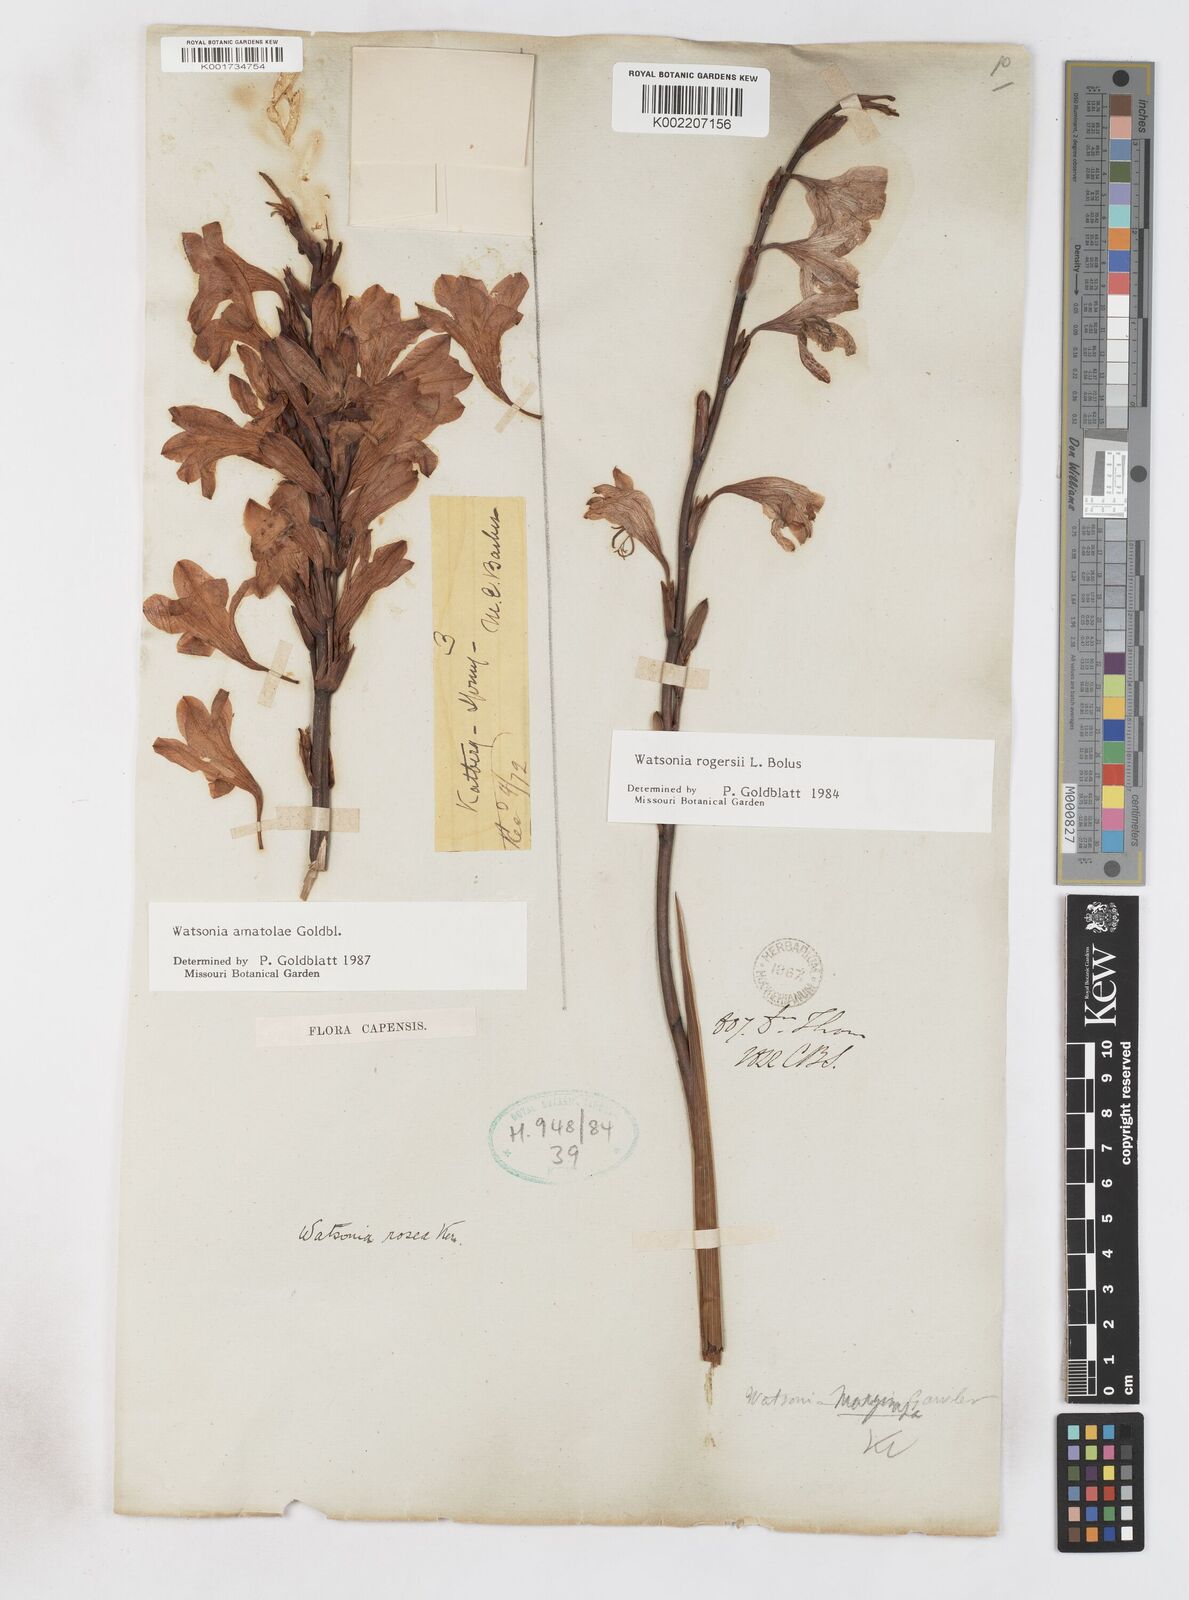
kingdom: Plantae
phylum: Tracheophyta
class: Liliopsida
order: Asparagales
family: Iridaceae
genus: Watsonia
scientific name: Watsonia amatolae
